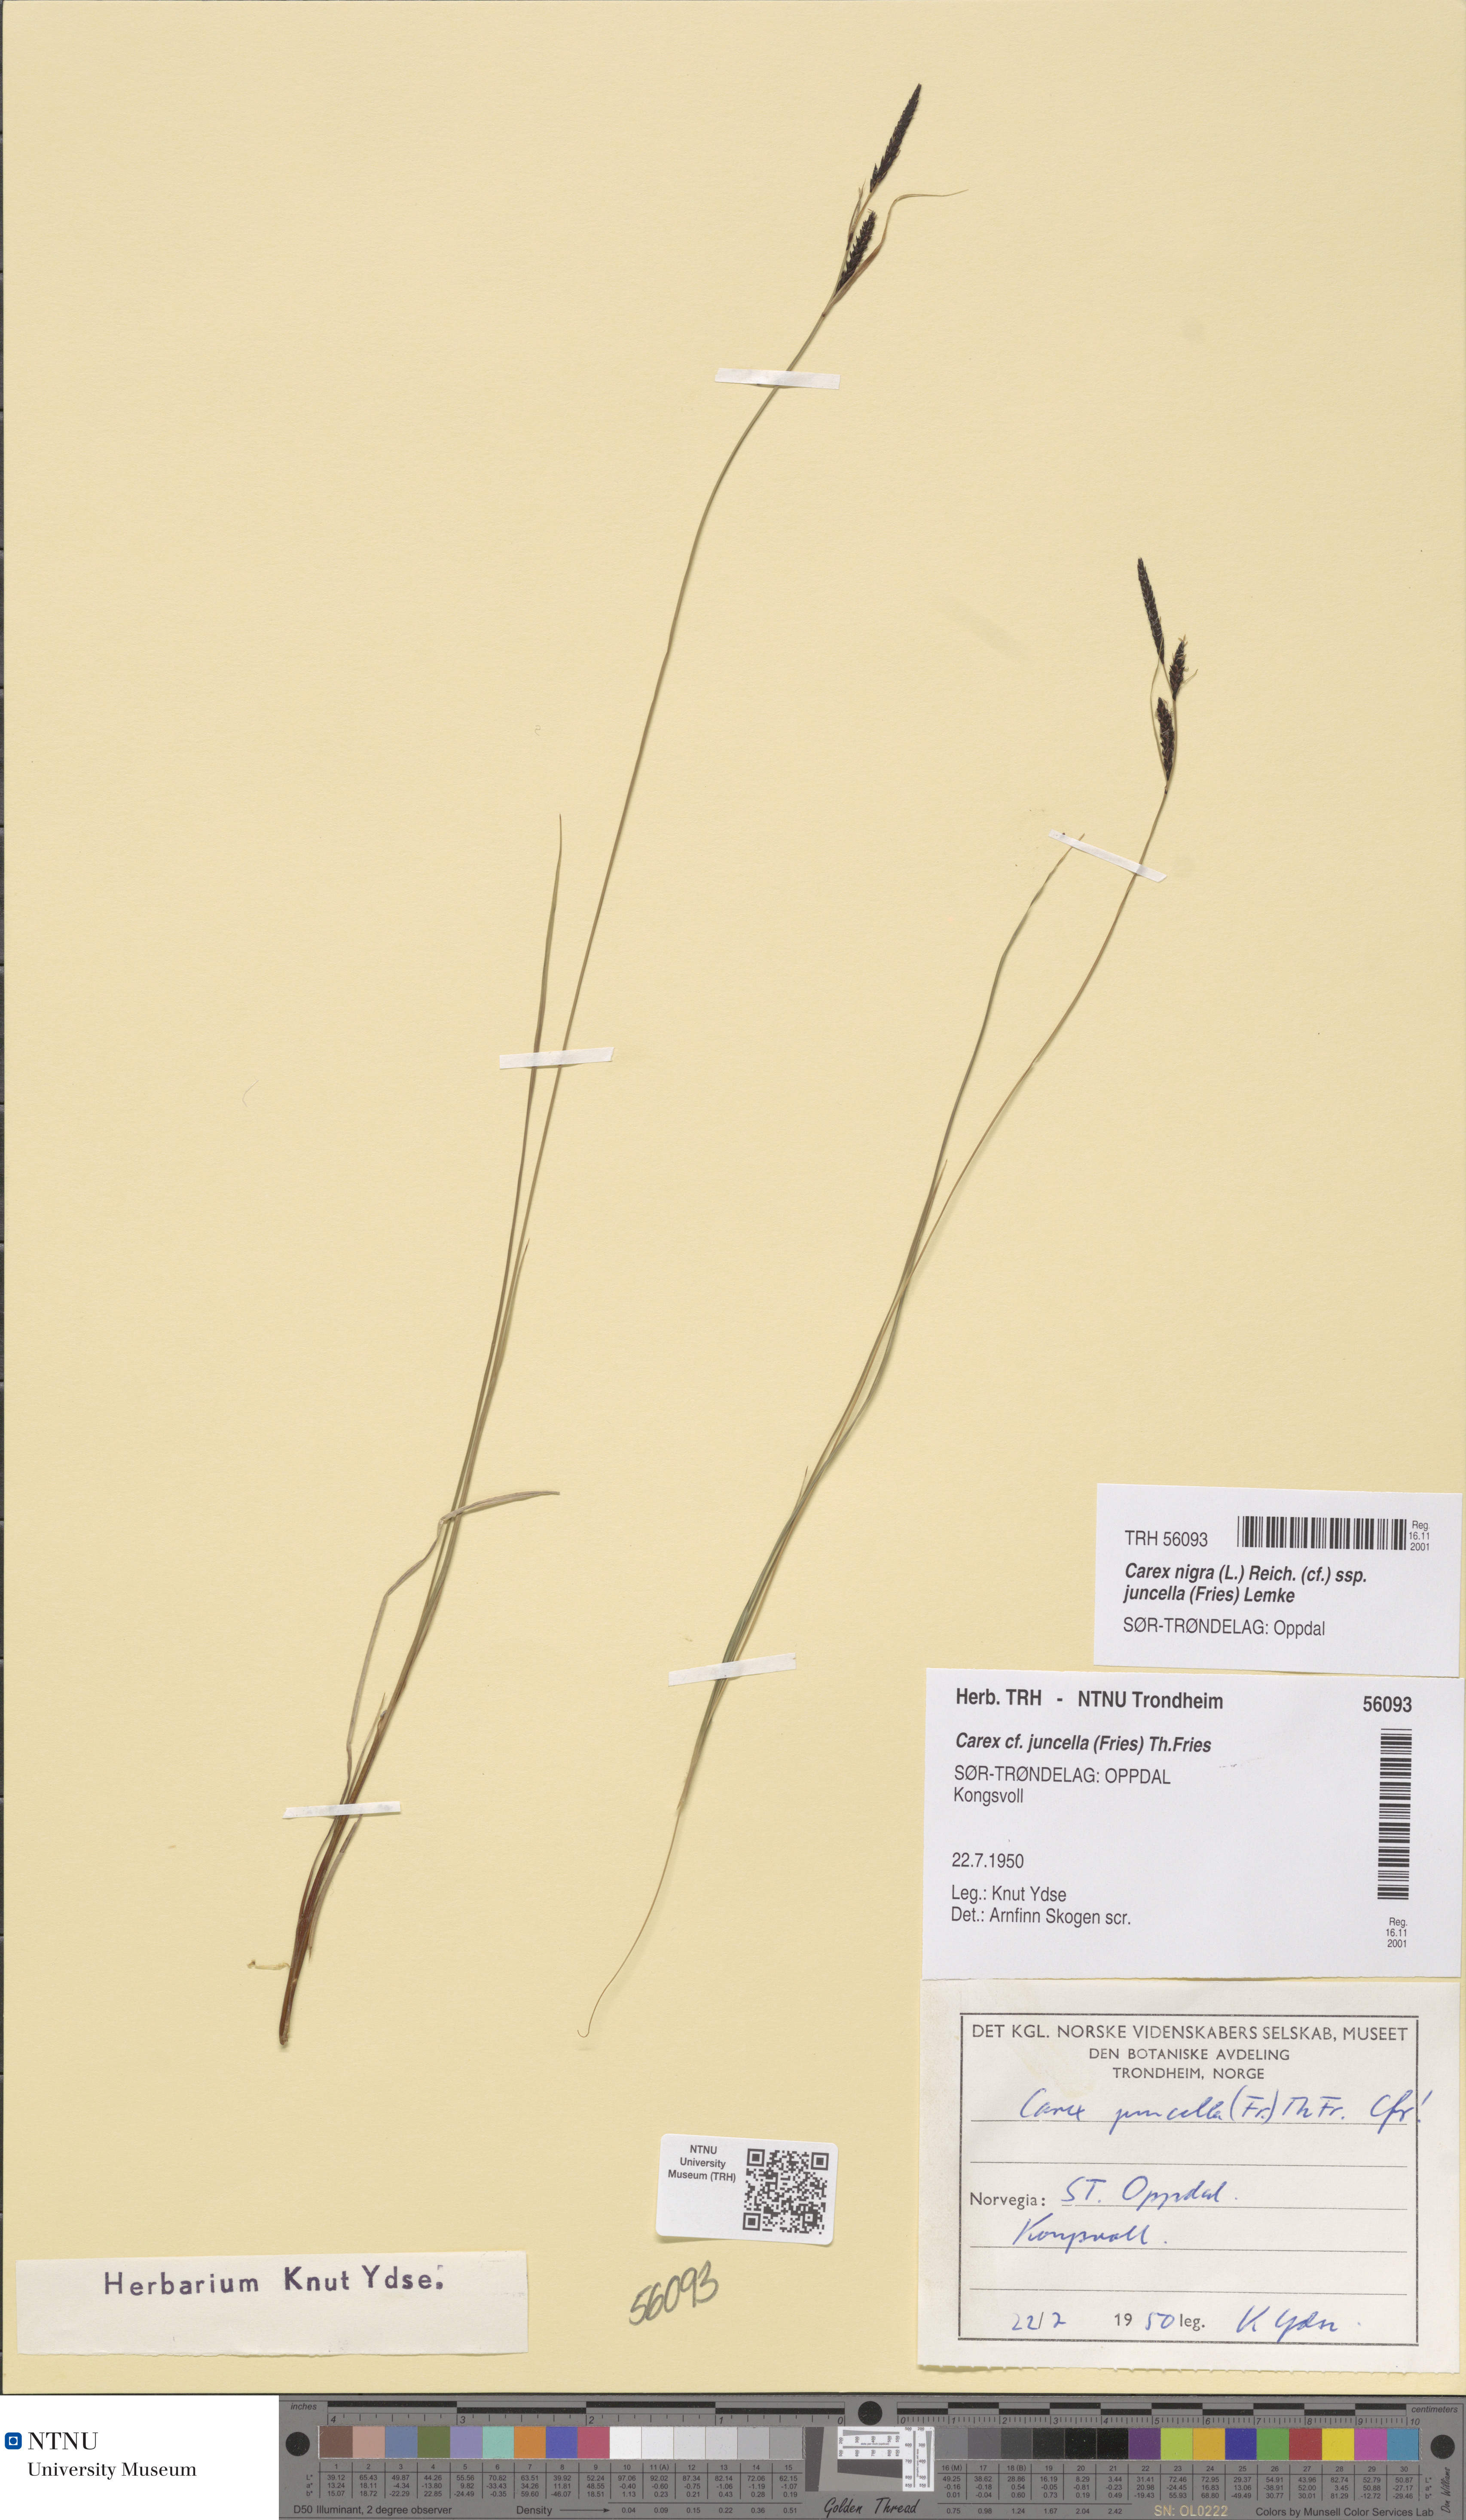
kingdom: Plantae
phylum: Tracheophyta
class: Liliopsida
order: Poales
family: Cyperaceae
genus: Carex
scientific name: Carex nigra
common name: Common sedge
